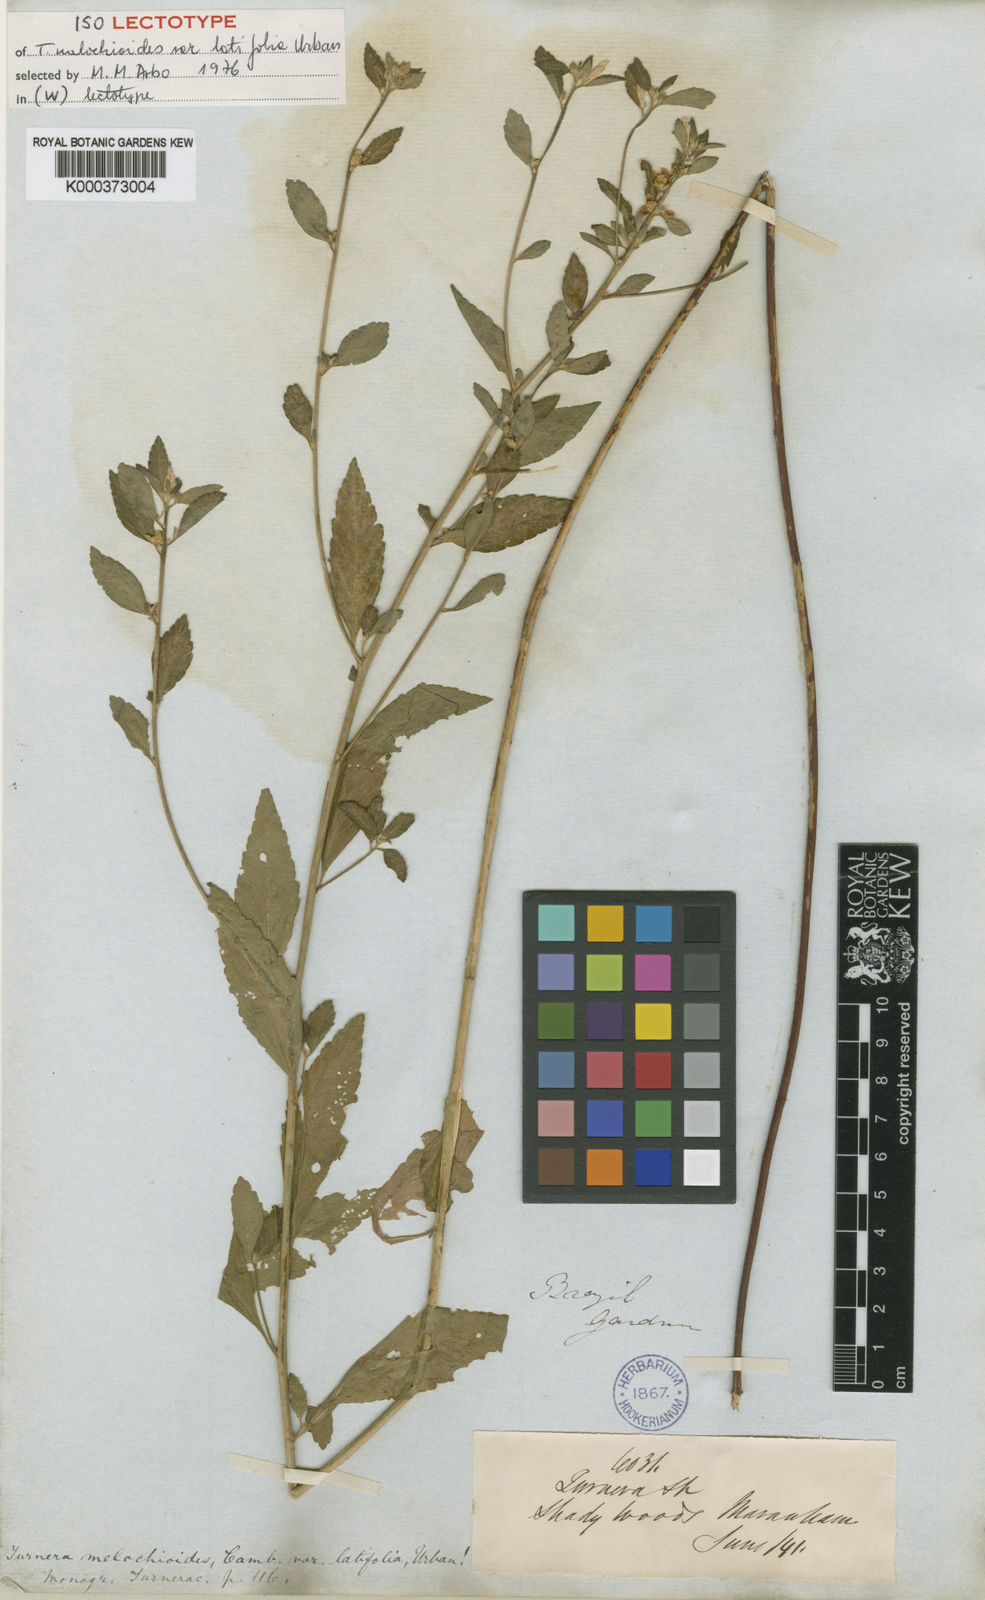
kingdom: Plantae
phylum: Tracheophyta
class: Magnoliopsida
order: Malpighiales
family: Turneraceae
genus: Turnera
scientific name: Turnera melochioides
